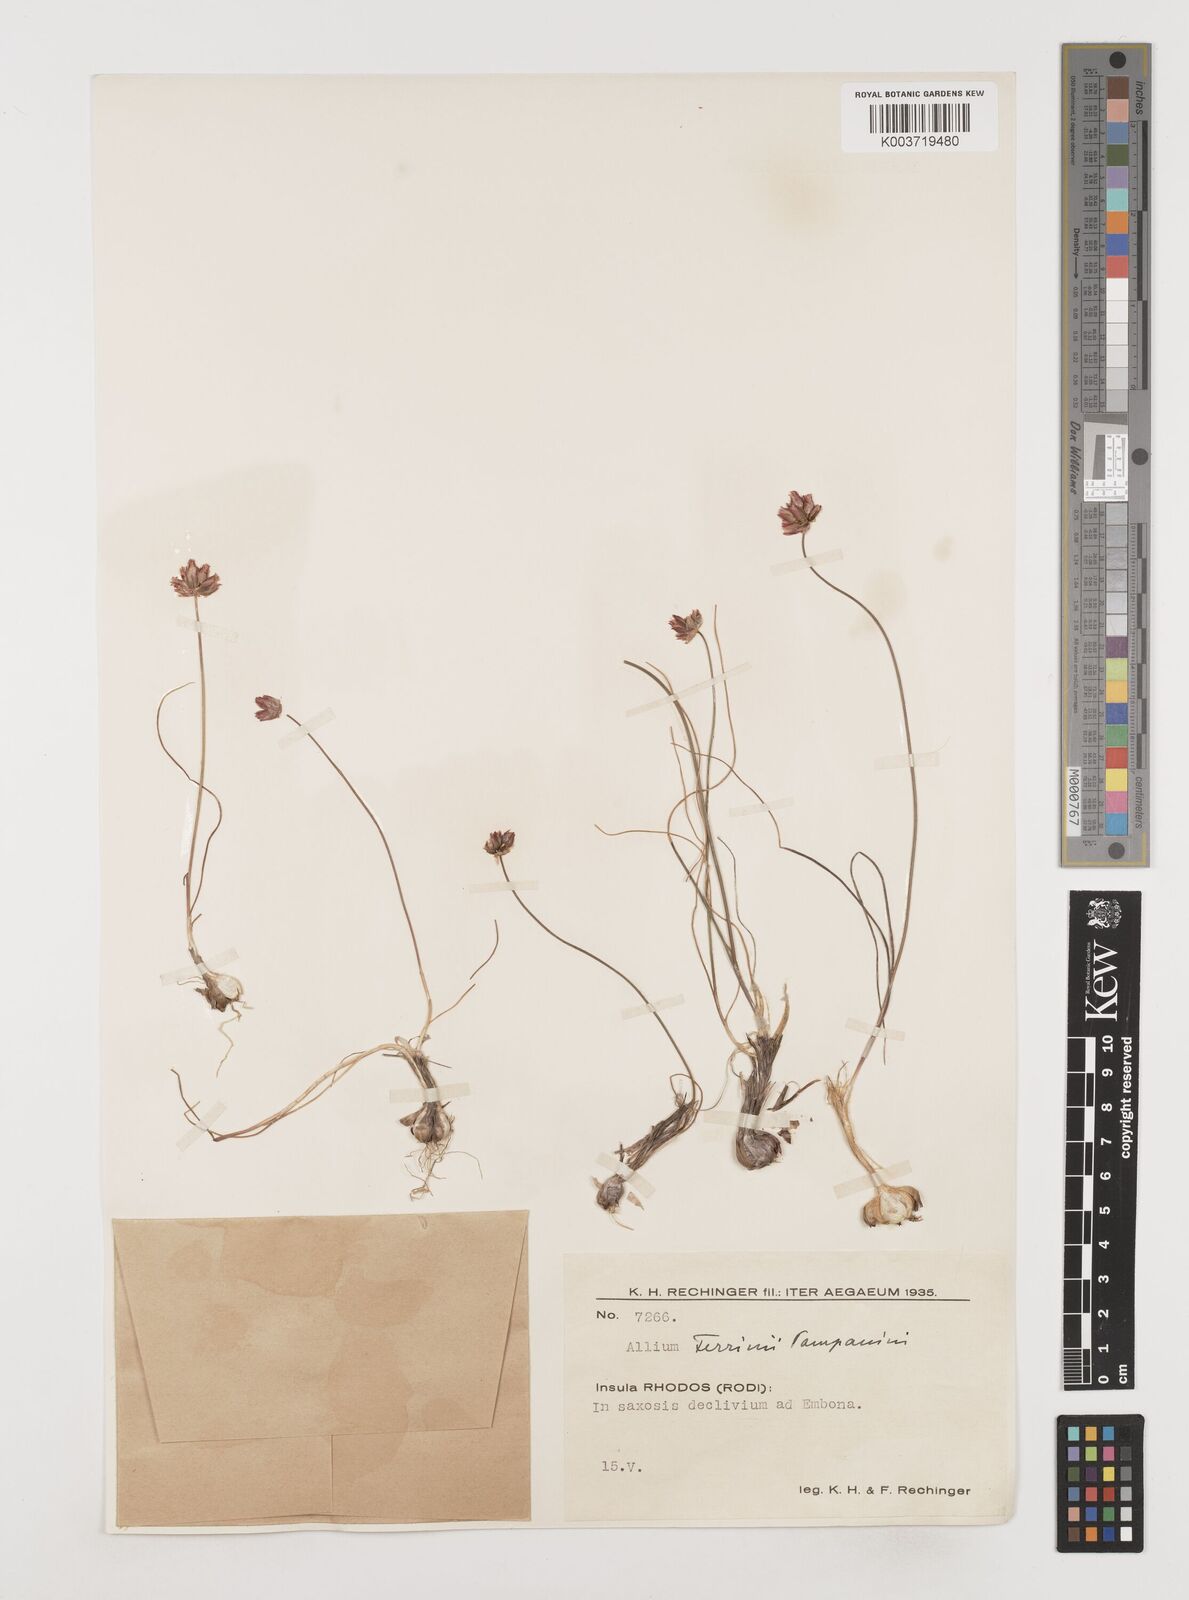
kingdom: Plantae
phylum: Tracheophyta
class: Liliopsida
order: Asparagales
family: Amaryllidaceae
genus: Allium
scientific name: Allium junceum
